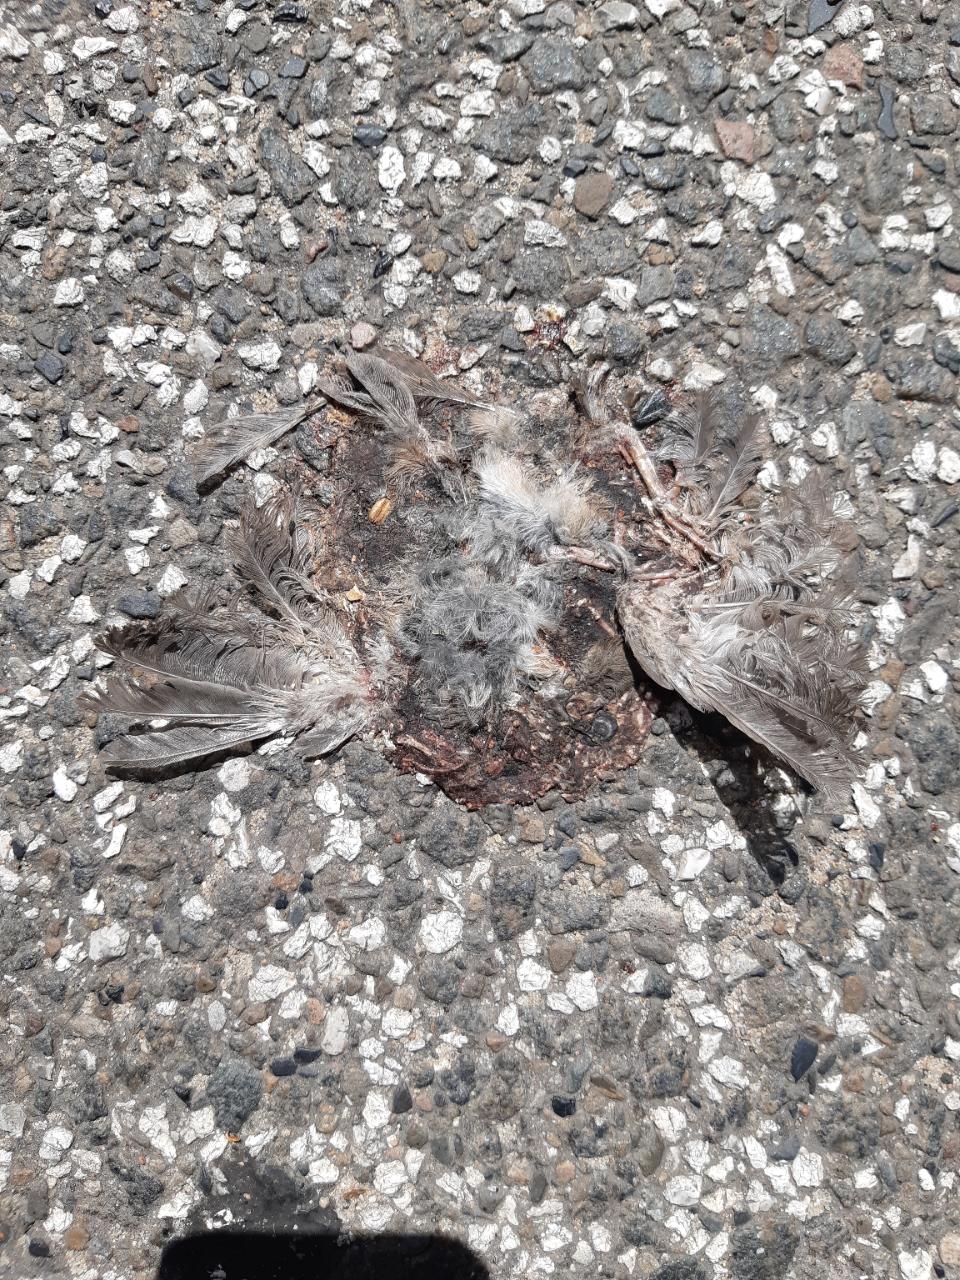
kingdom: Animalia
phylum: Chordata
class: Aves
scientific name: Aves
